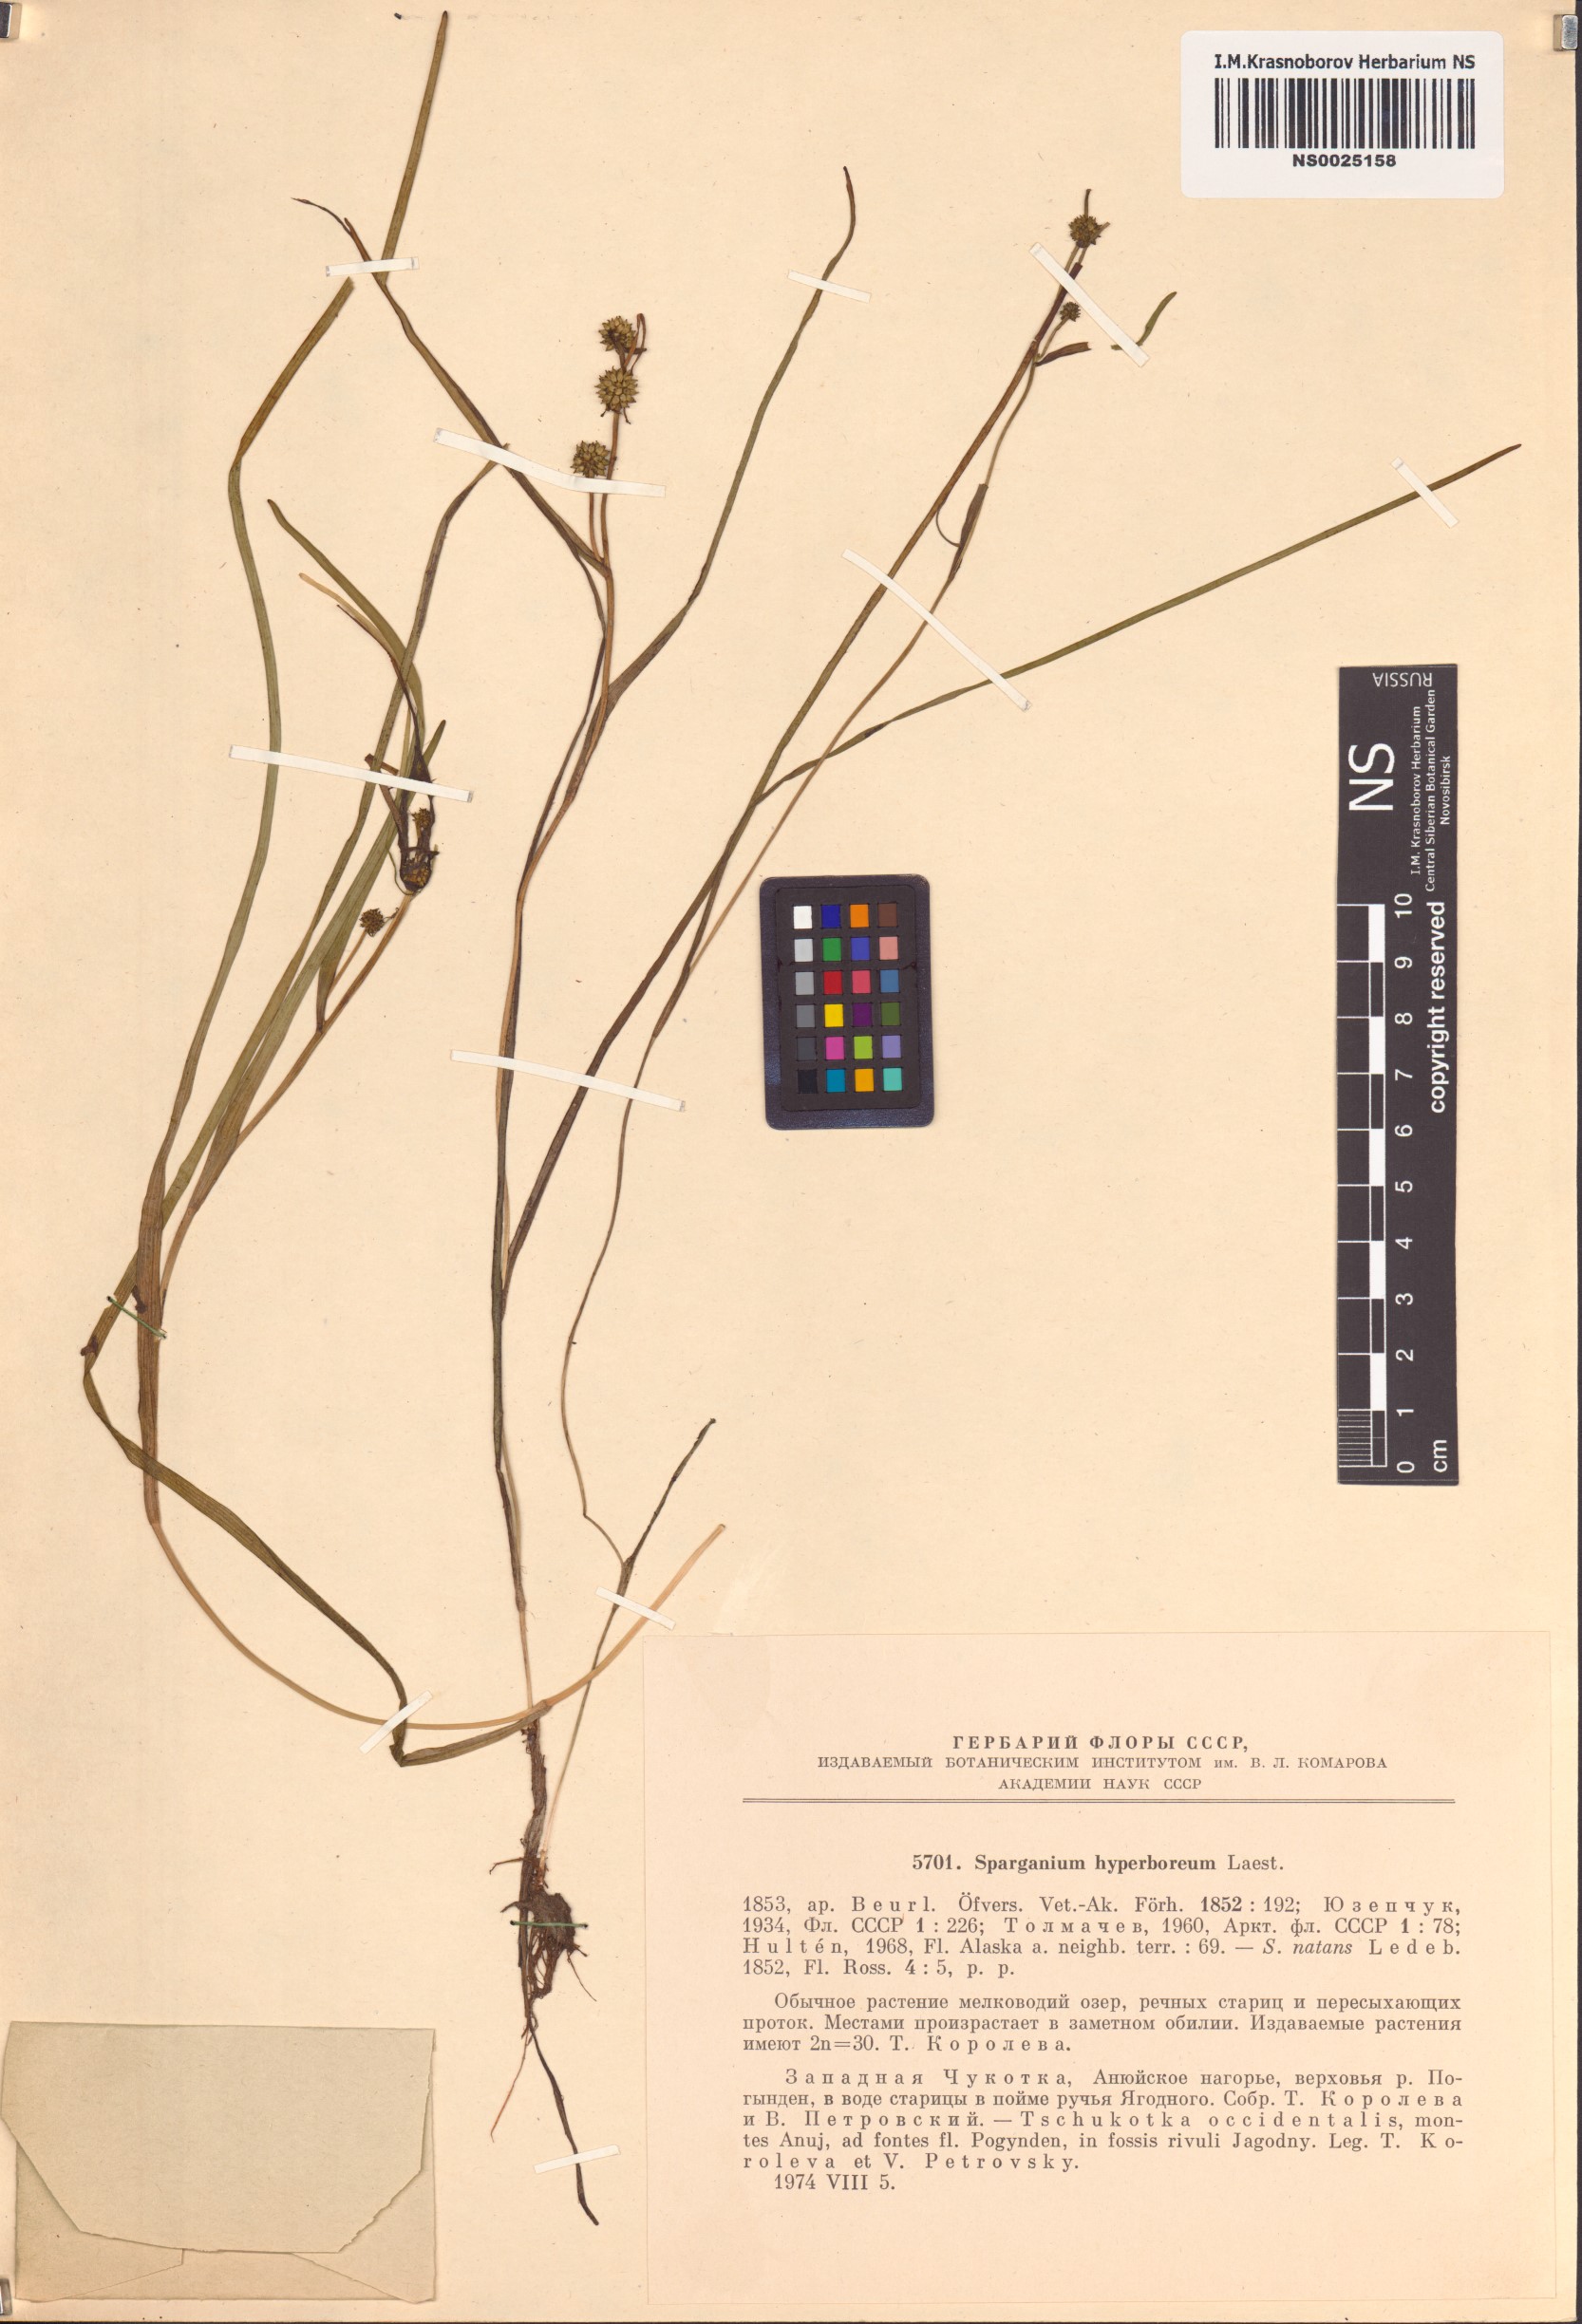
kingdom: Plantae
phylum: Tracheophyta
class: Liliopsida
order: Poales
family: Typhaceae
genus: Sparganium
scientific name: Sparganium hyperboreum
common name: Arctic burreed
